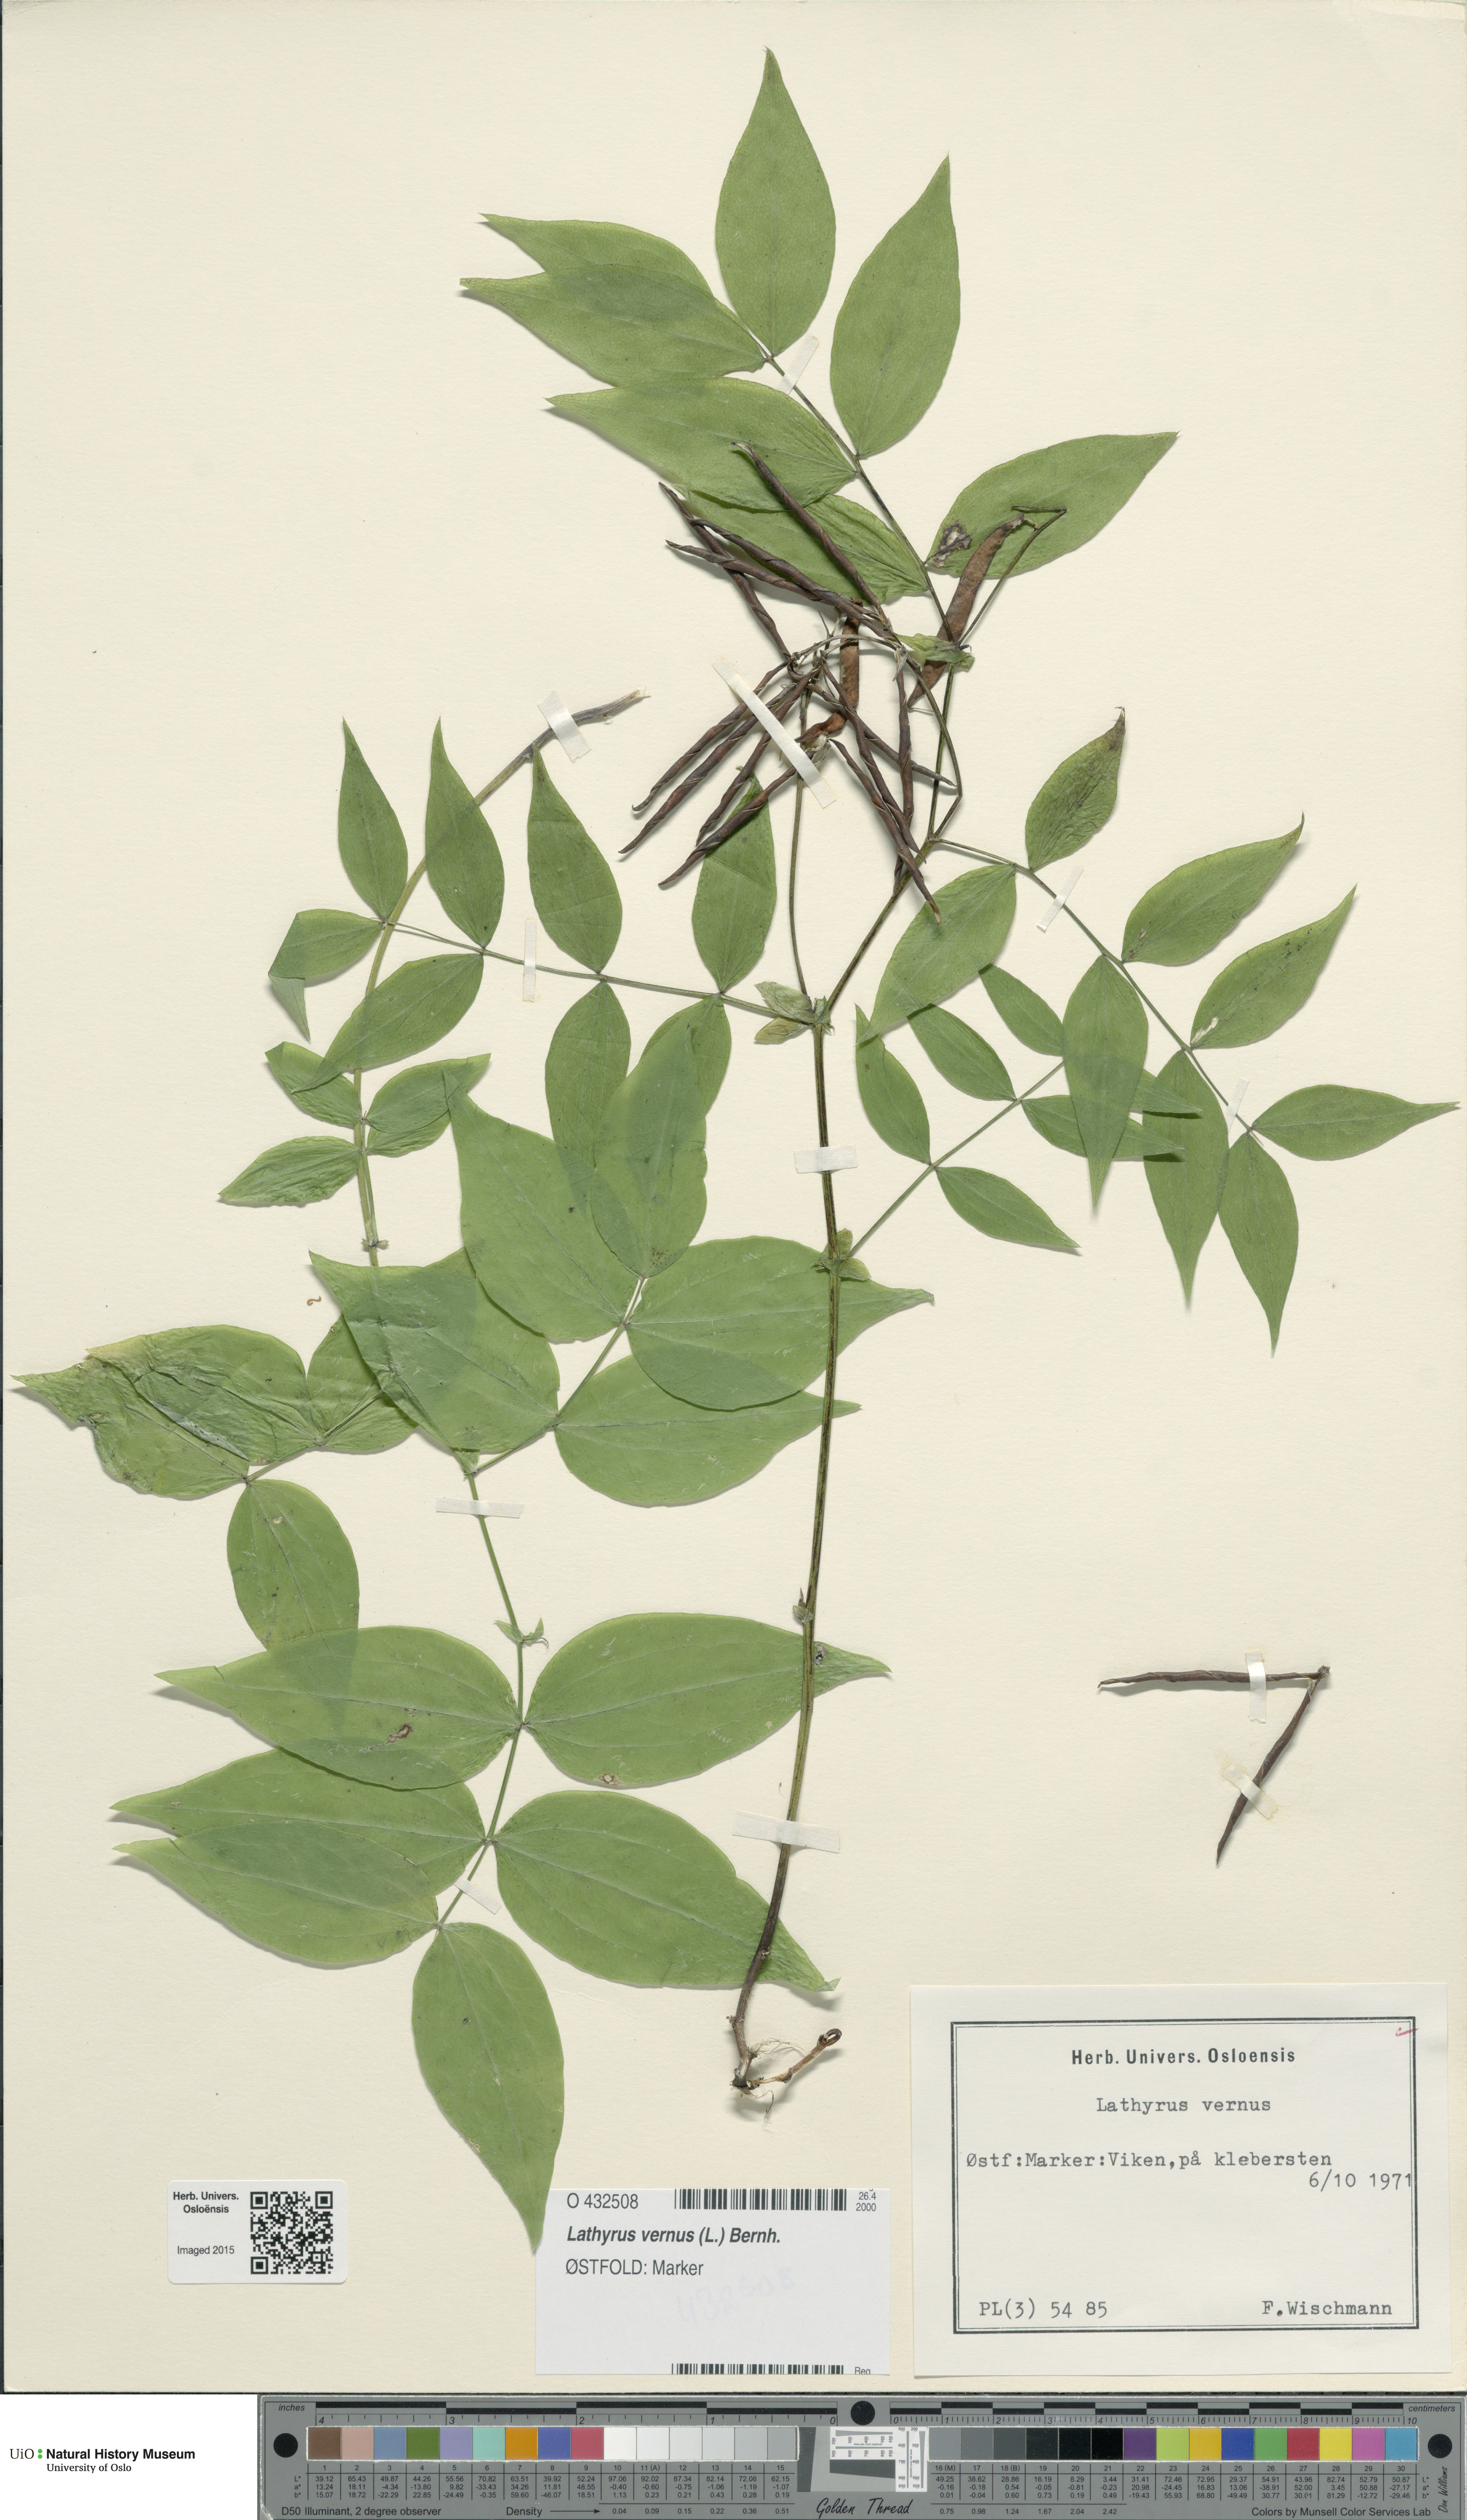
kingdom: Plantae
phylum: Tracheophyta
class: Magnoliopsida
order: Fabales
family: Fabaceae
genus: Lathyrus
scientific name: Lathyrus vernus
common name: Spring pea
